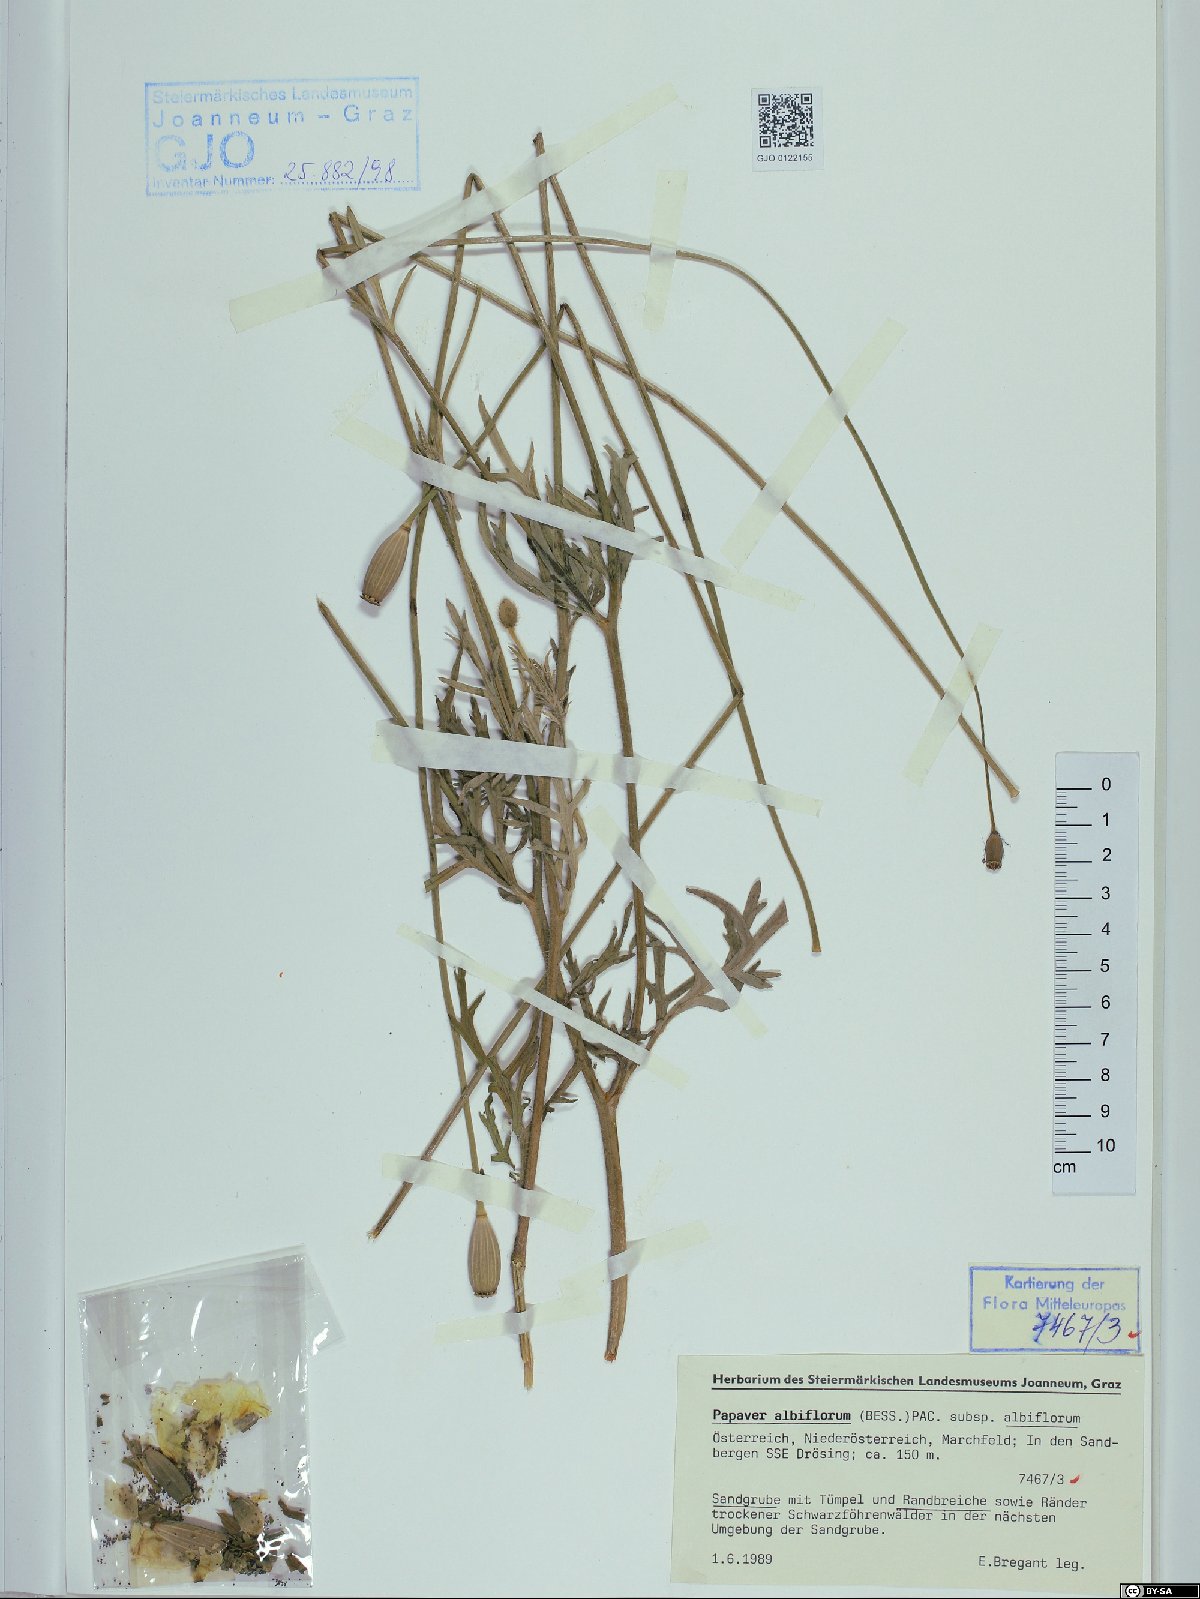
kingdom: Plantae
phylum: Tracheophyta
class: Magnoliopsida
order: Ranunculales
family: Papaveraceae
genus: Papaver
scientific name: Papaver dubium
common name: Long-headed poppy
